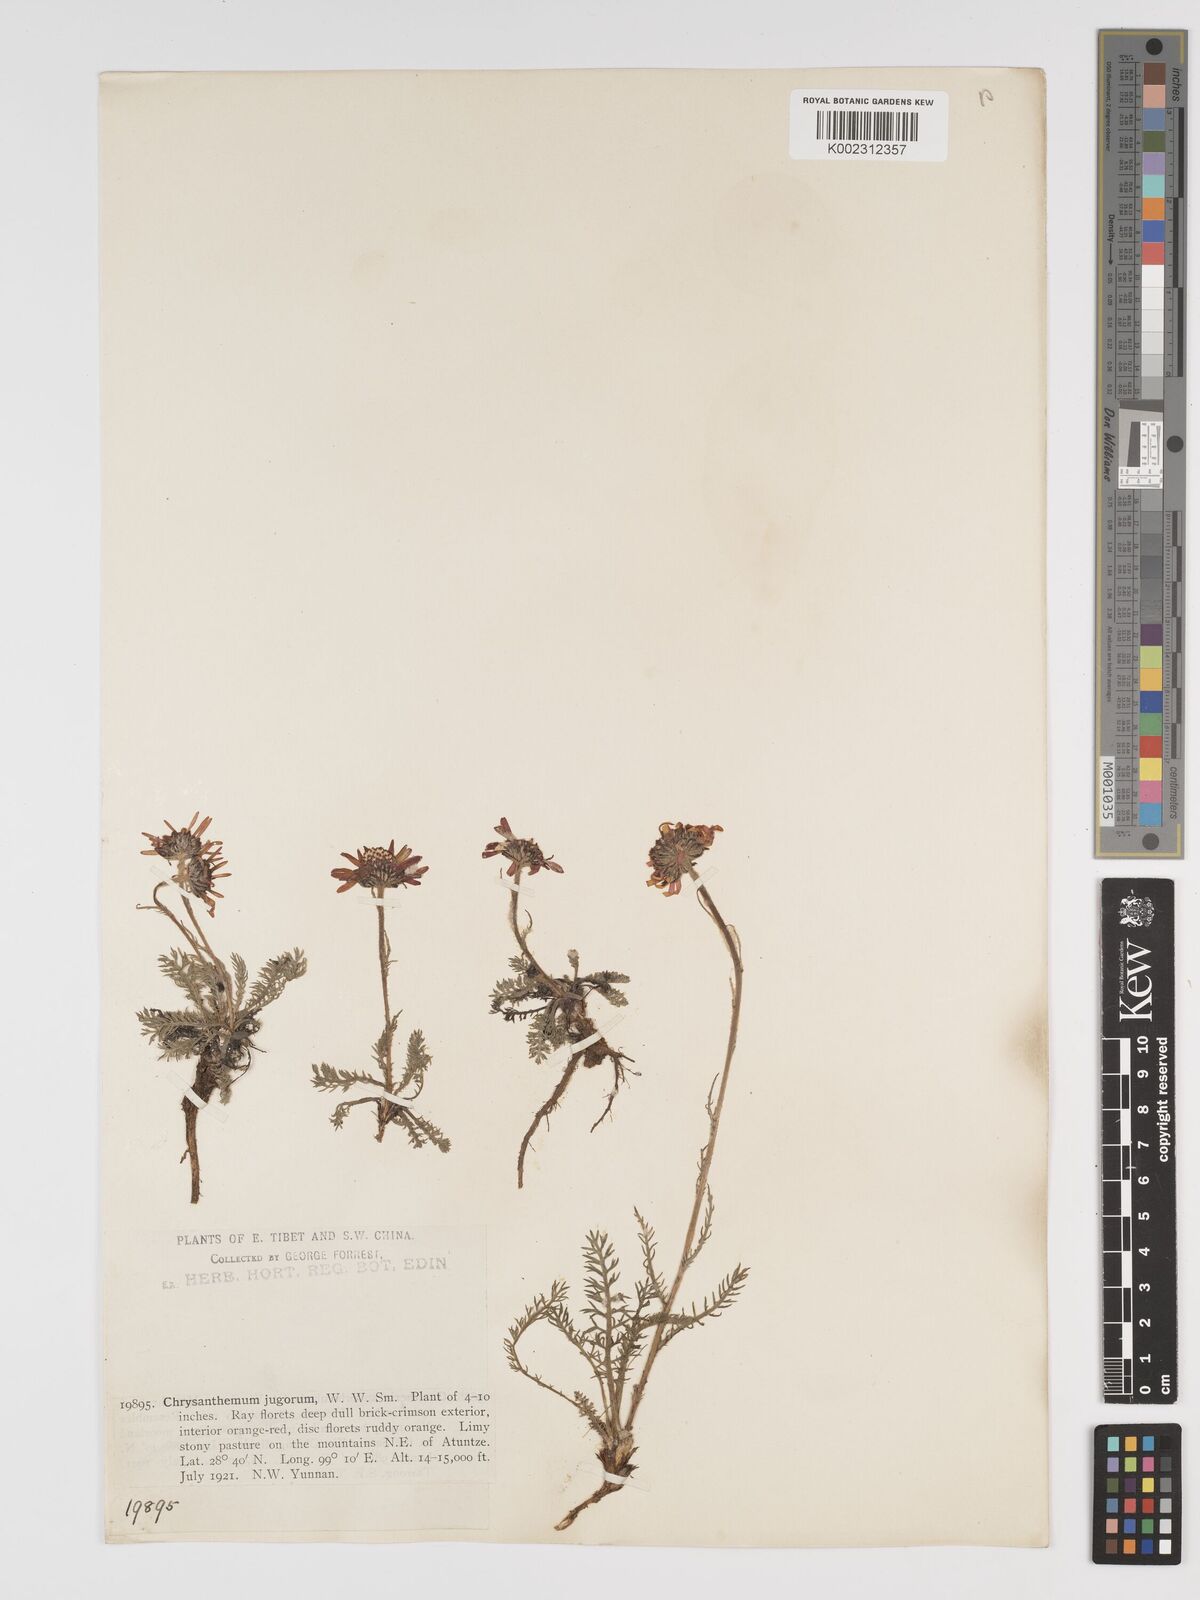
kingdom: Plantae
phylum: Tracheophyta
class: Magnoliopsida
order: Asterales
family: Asteraceae
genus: Tanacetum
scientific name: Tanacetum tatsienense
